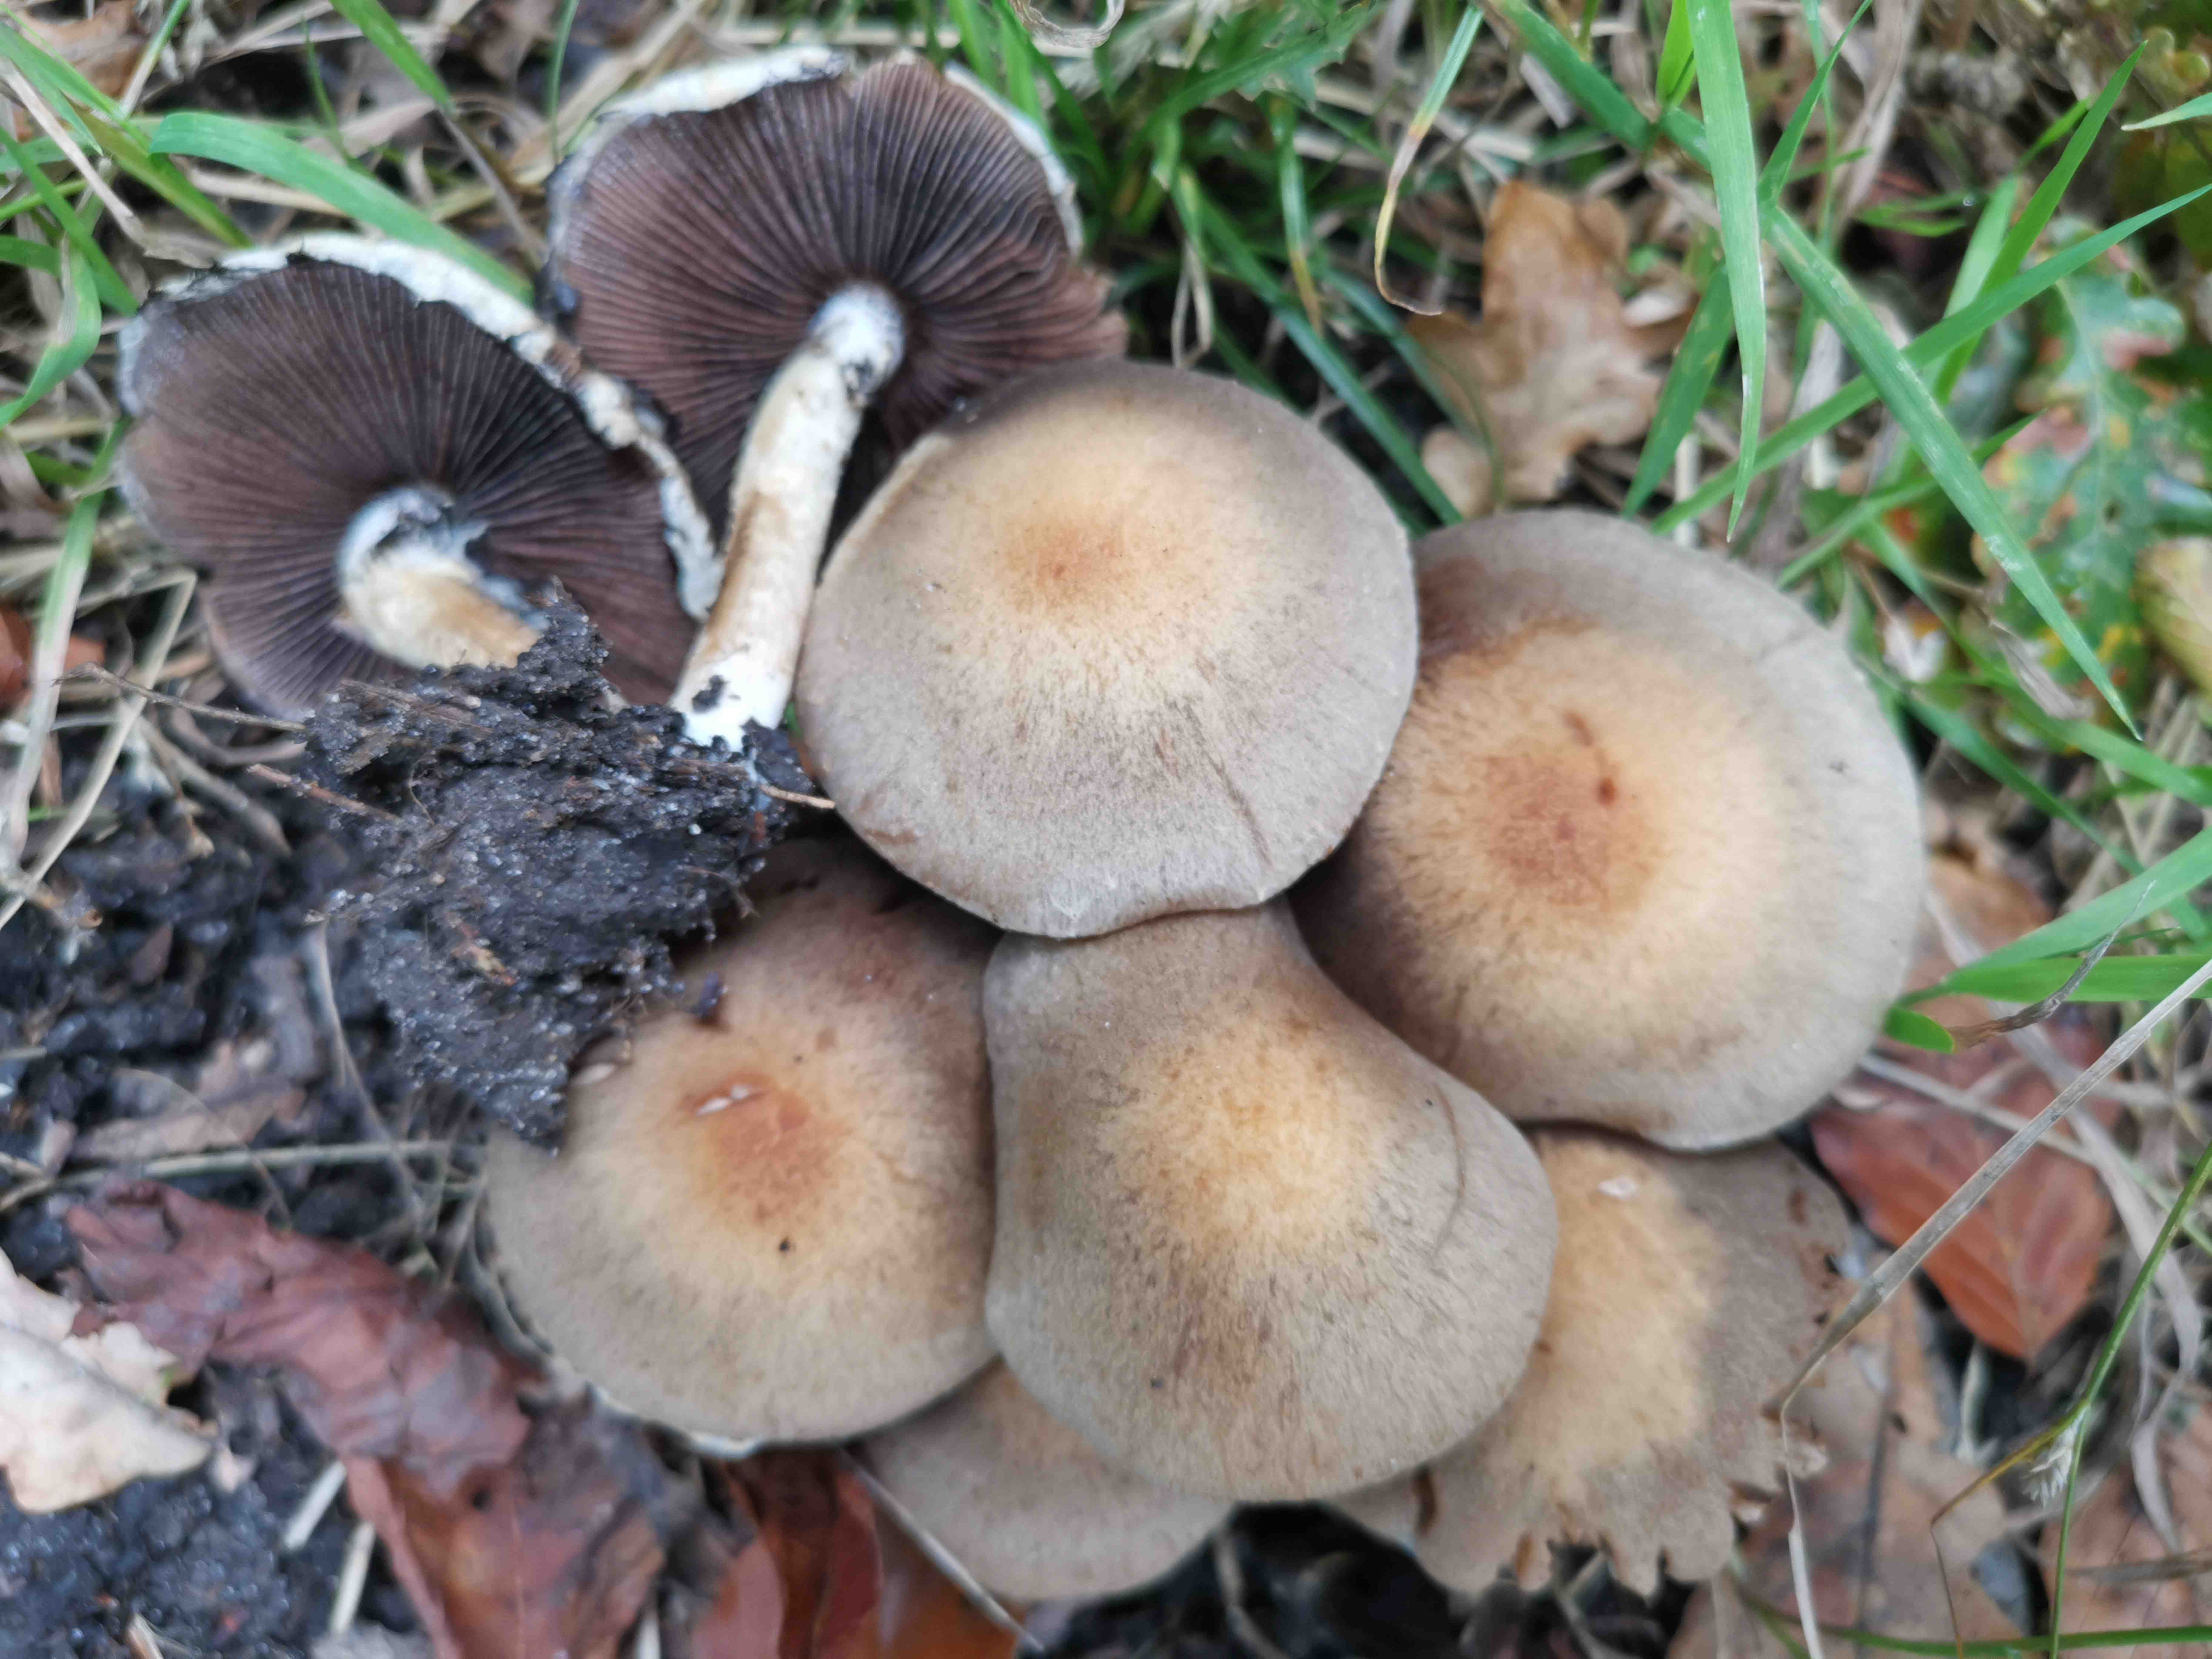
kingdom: Fungi
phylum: Basidiomycota
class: Agaricomycetes
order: Agaricales
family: Psathyrellaceae
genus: Lacrymaria
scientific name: Lacrymaria lacrymabunda
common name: grædende mørkhat
